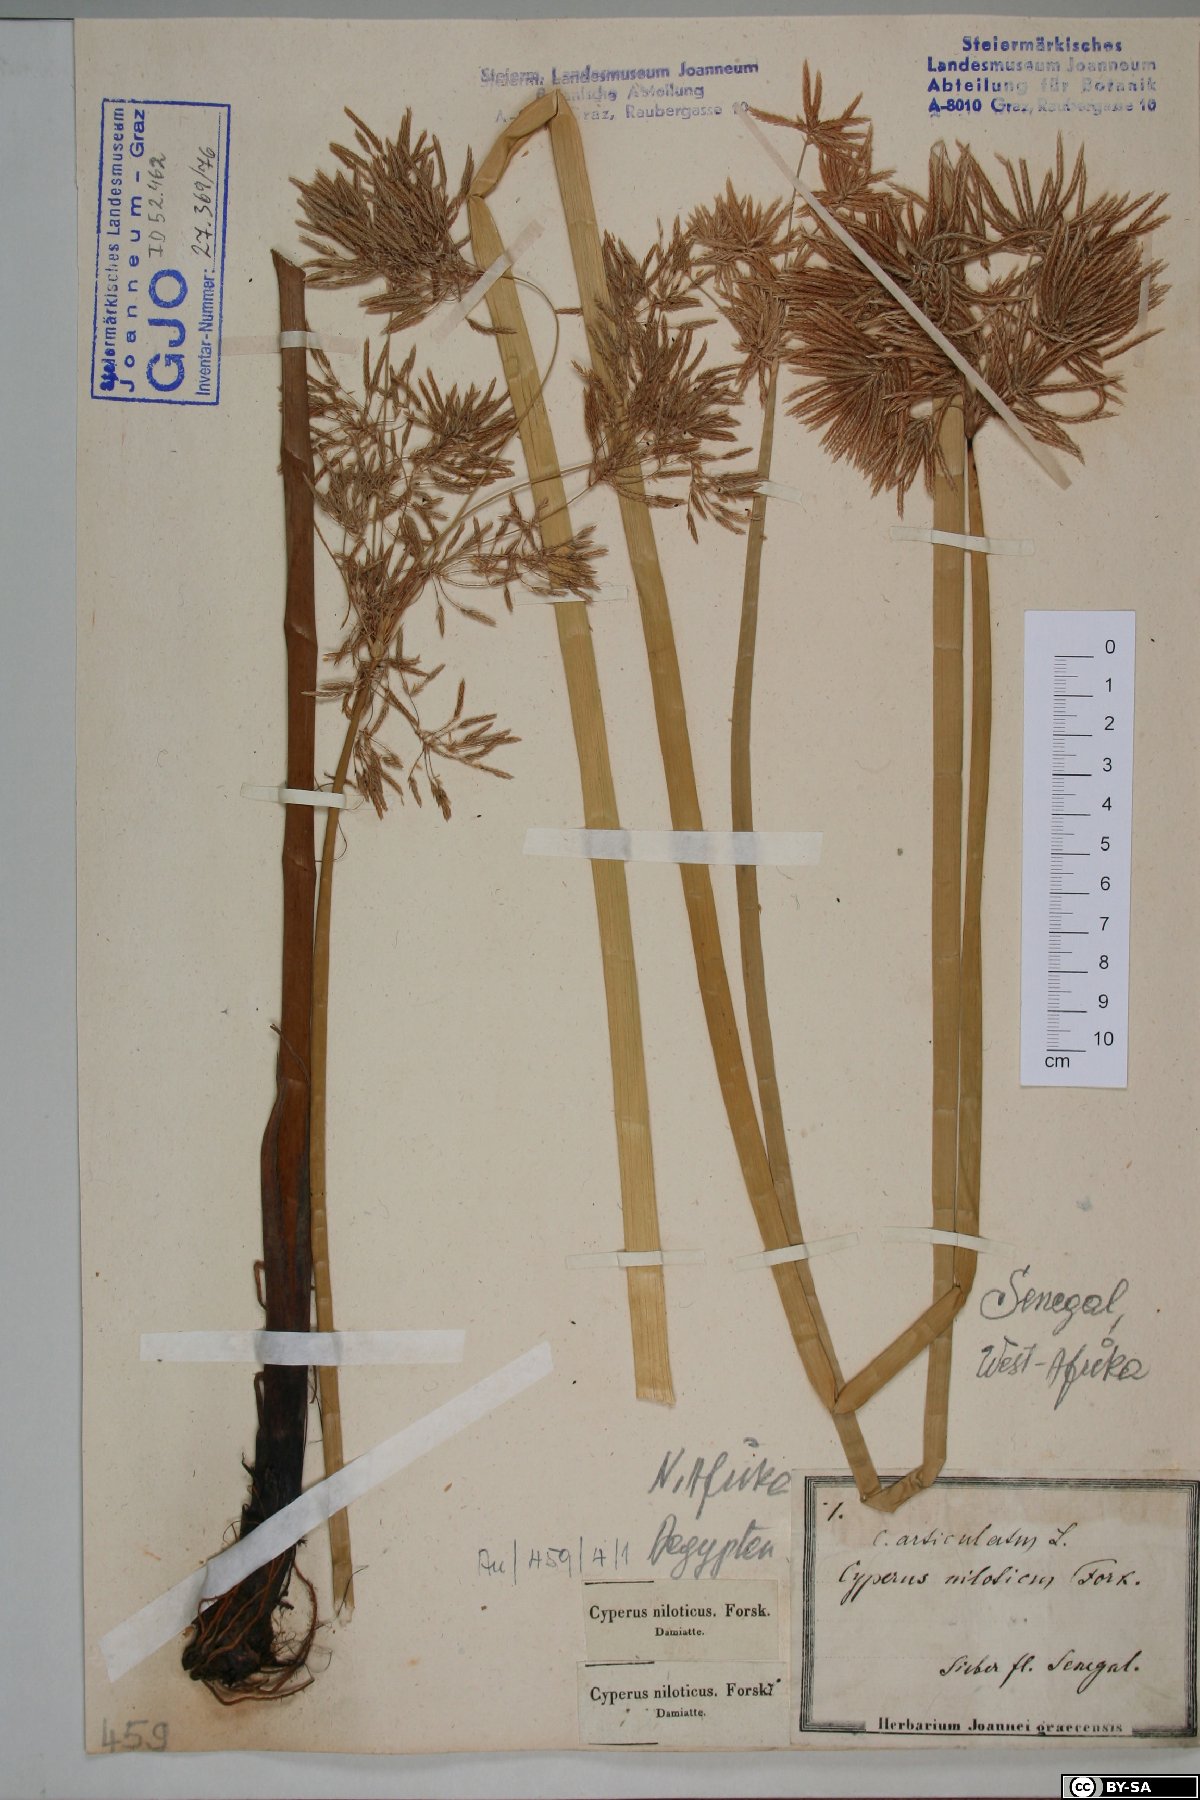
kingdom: Plantae
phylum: Tracheophyta
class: Liliopsida
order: Poales
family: Cyperaceae
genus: Cyperus
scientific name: Cyperus articulatus
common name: Jointed flatsedge
